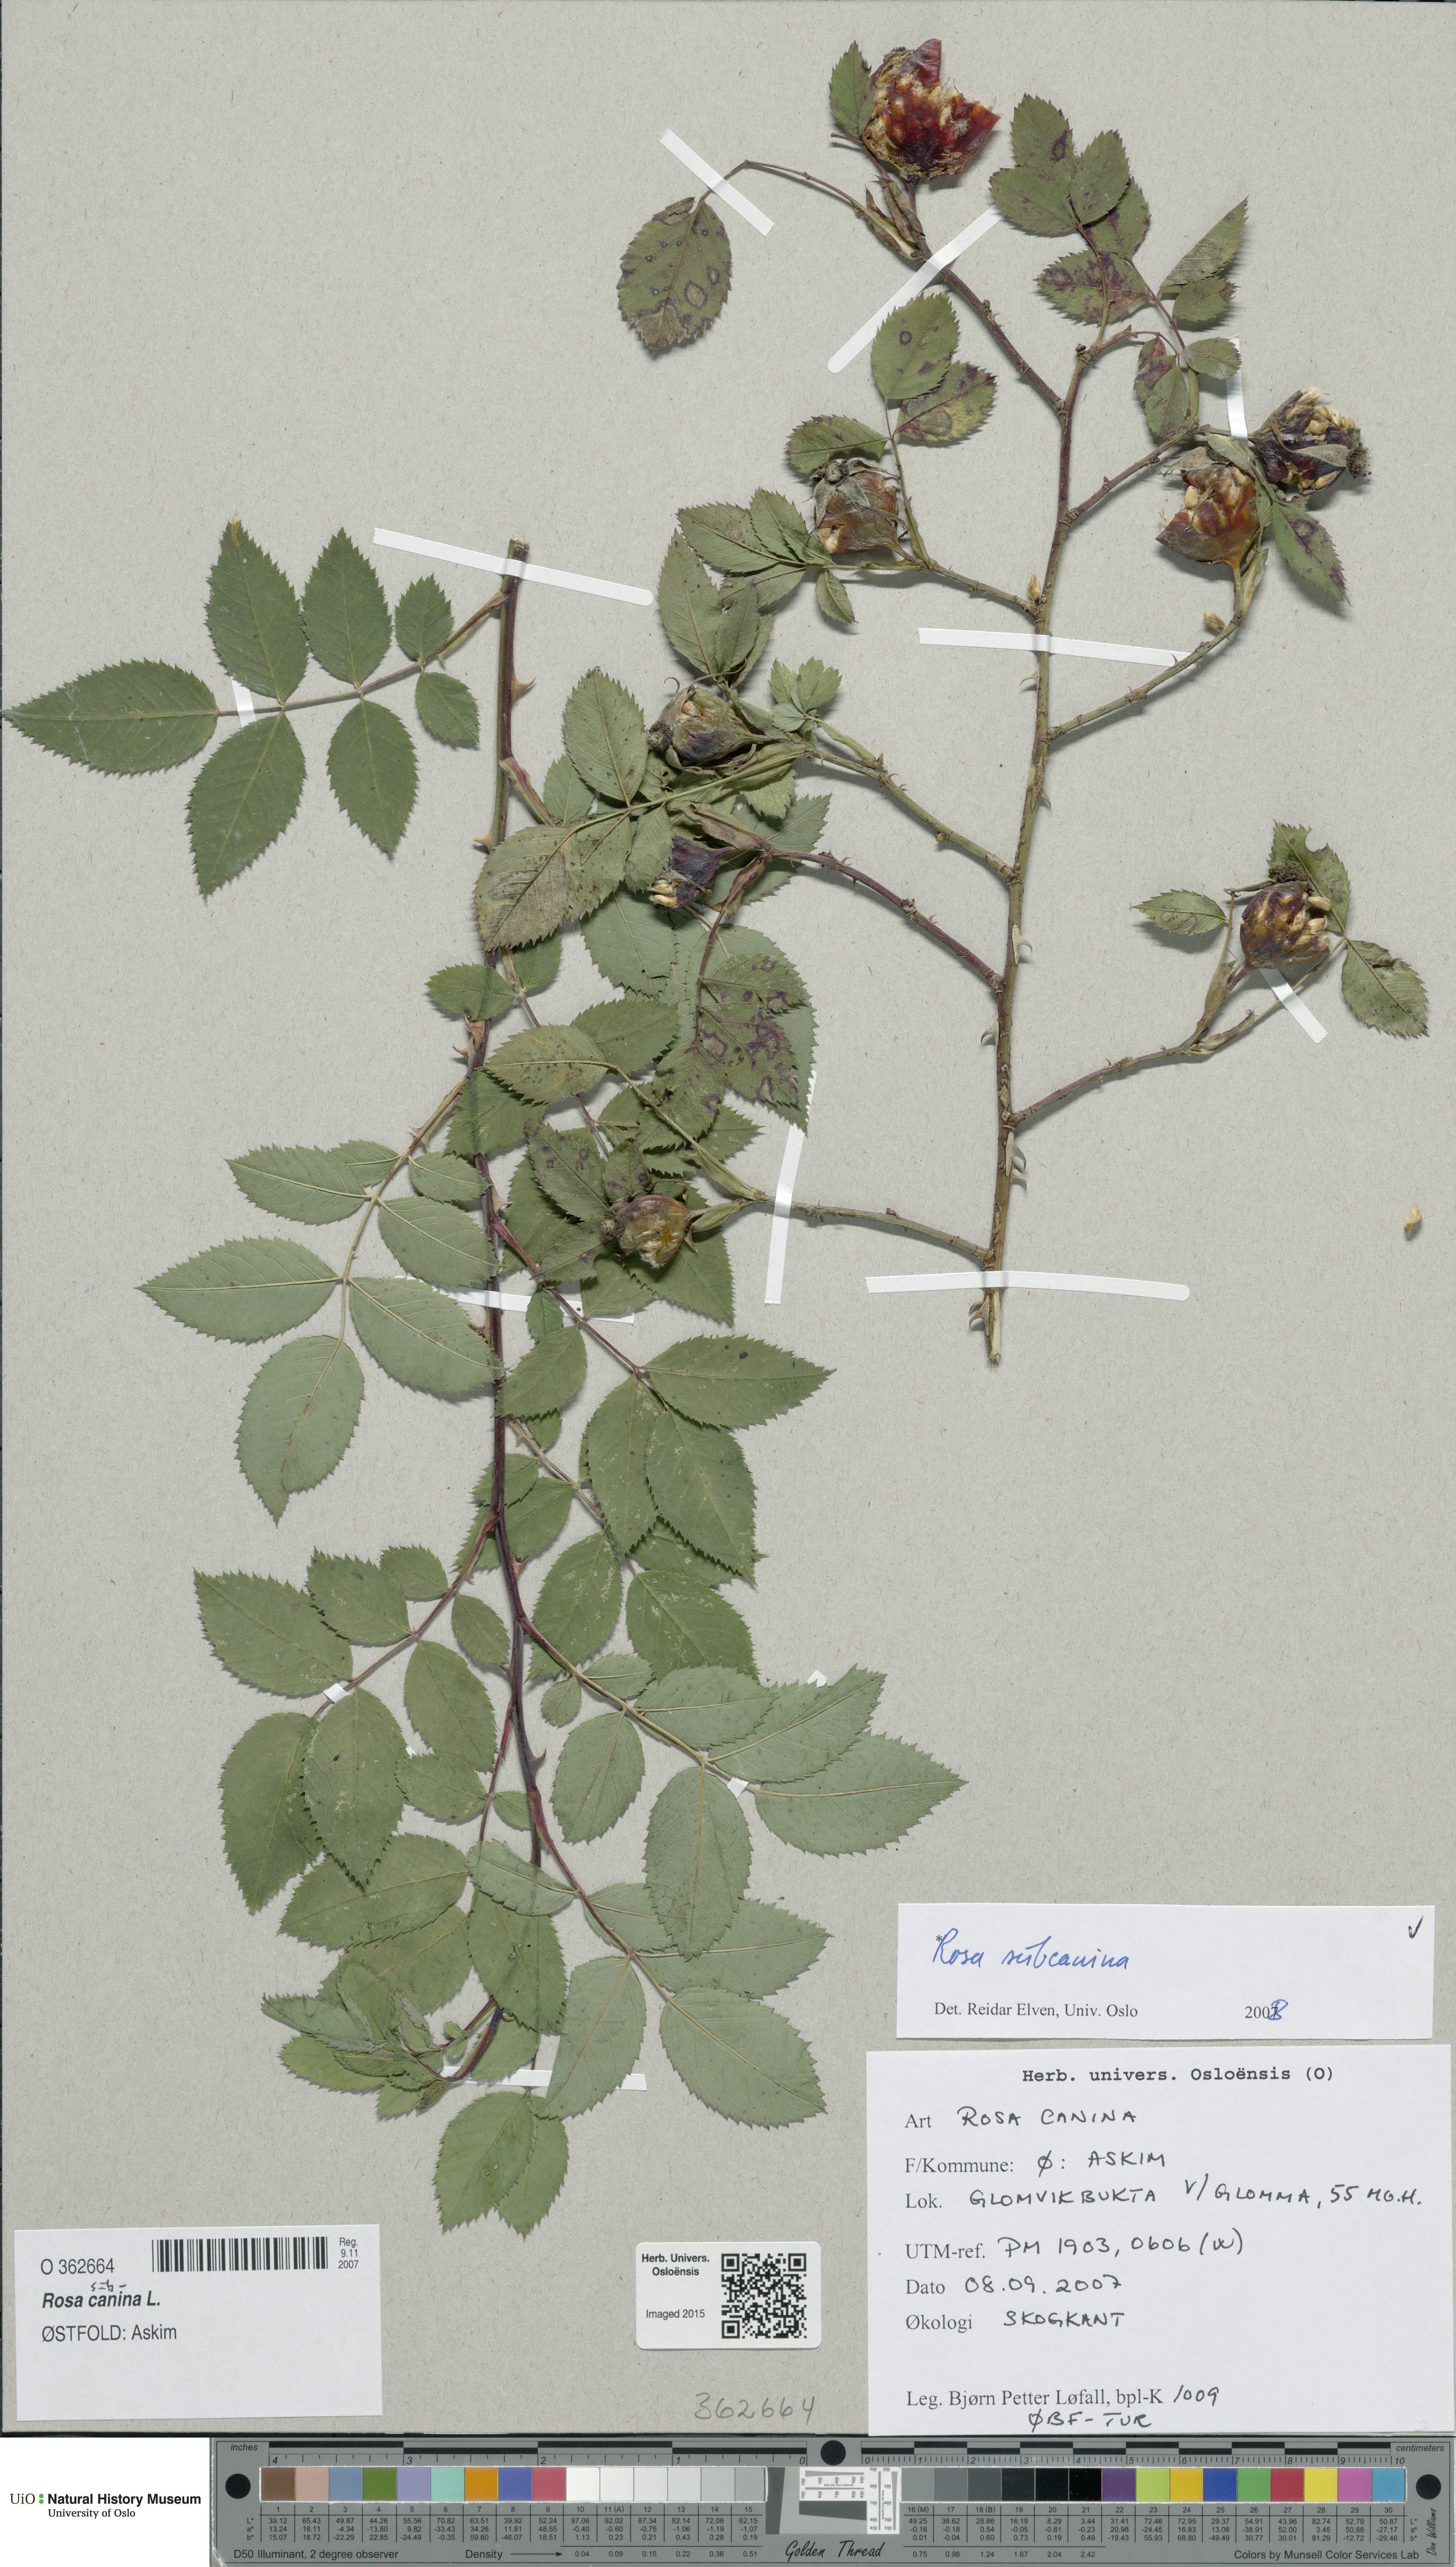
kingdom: Plantae
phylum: Tracheophyta
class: Magnoliopsida
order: Rosales
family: Rosaceae
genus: Rosa
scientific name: Rosa subcanina
